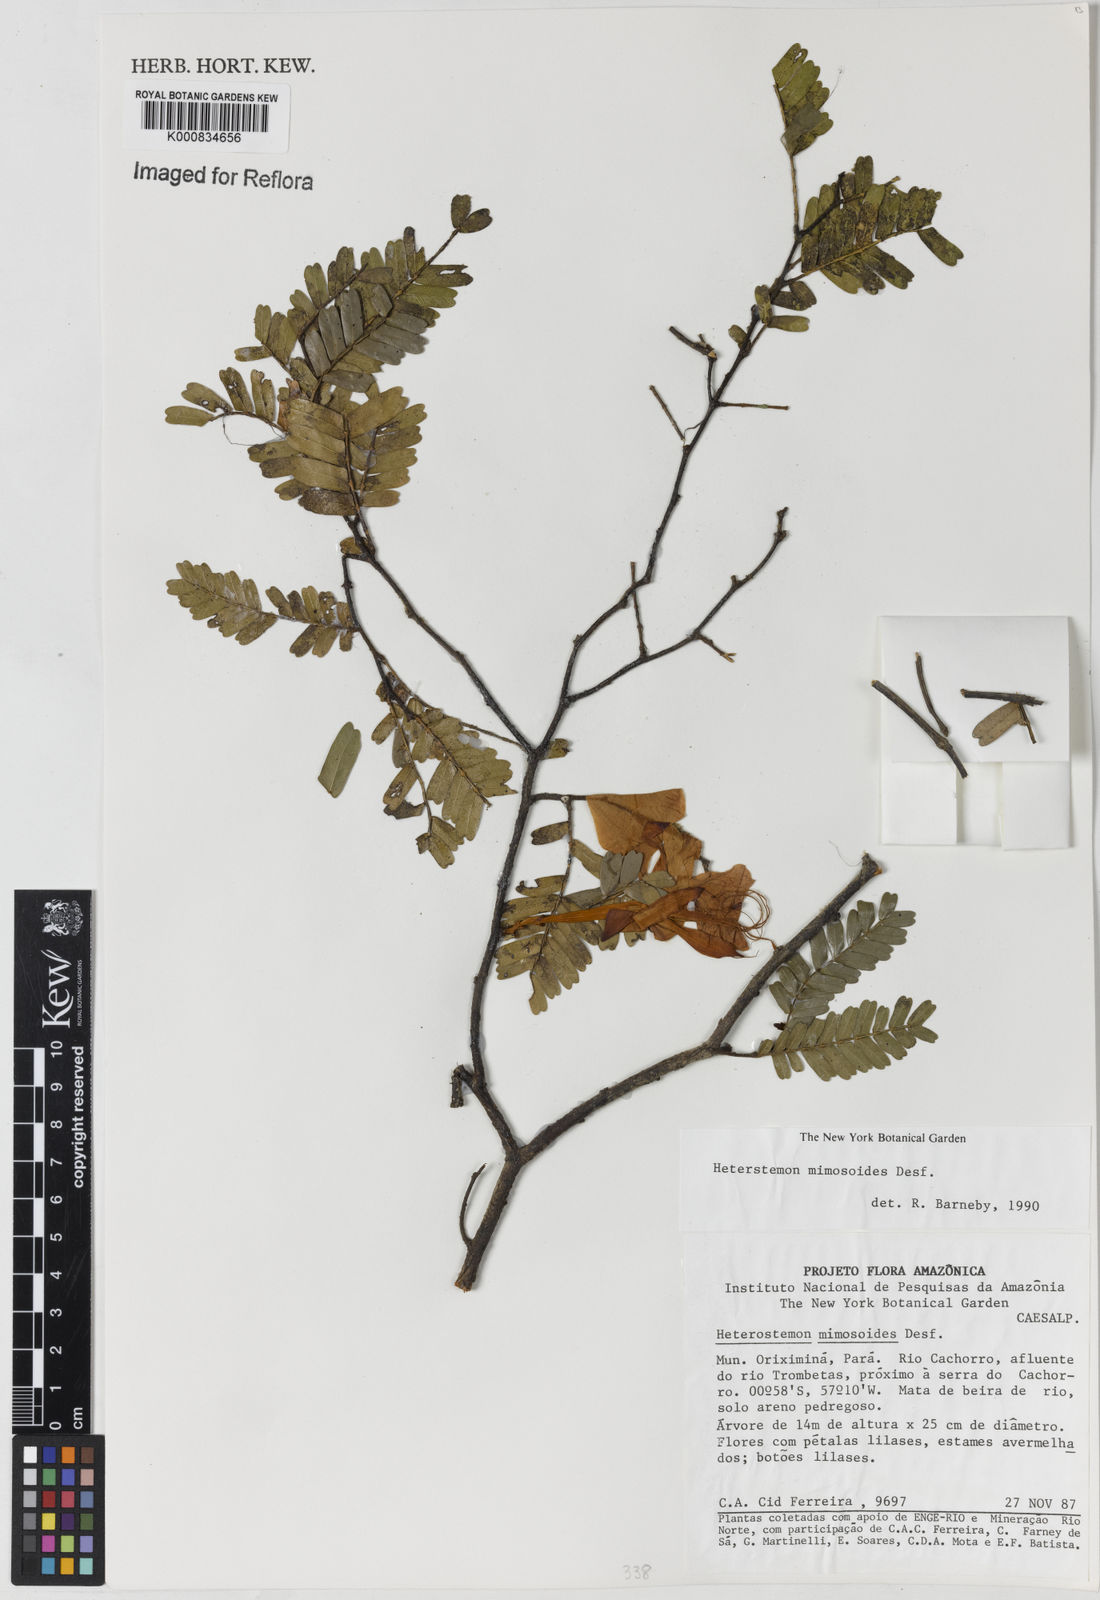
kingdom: Plantae
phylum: Tracheophyta
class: Magnoliopsida
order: Fabales
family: Fabaceae
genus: Heterostemon
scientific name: Heterostemon mimosoides
